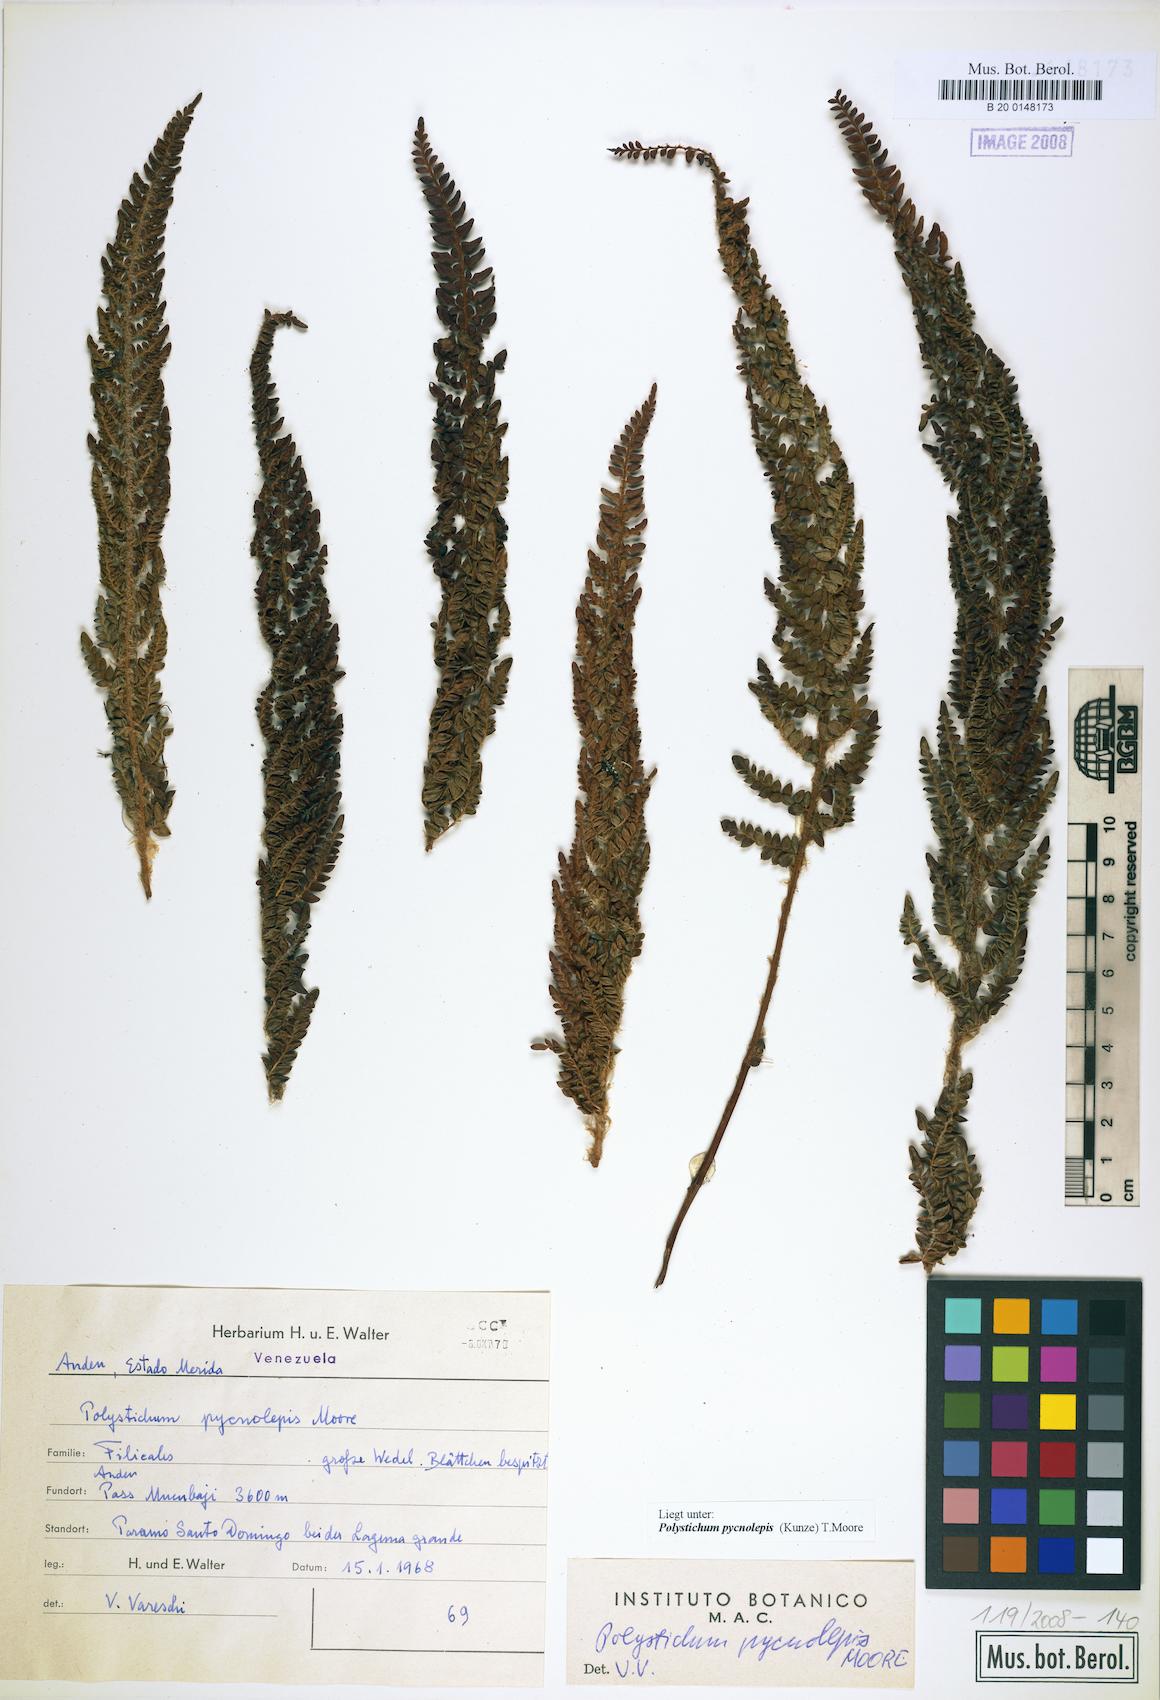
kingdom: Plantae
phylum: Tracheophyta
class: Polypodiopsida
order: Polypodiales
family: Dryopteridaceae
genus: Polystichum
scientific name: Polystichum pycnolepis
